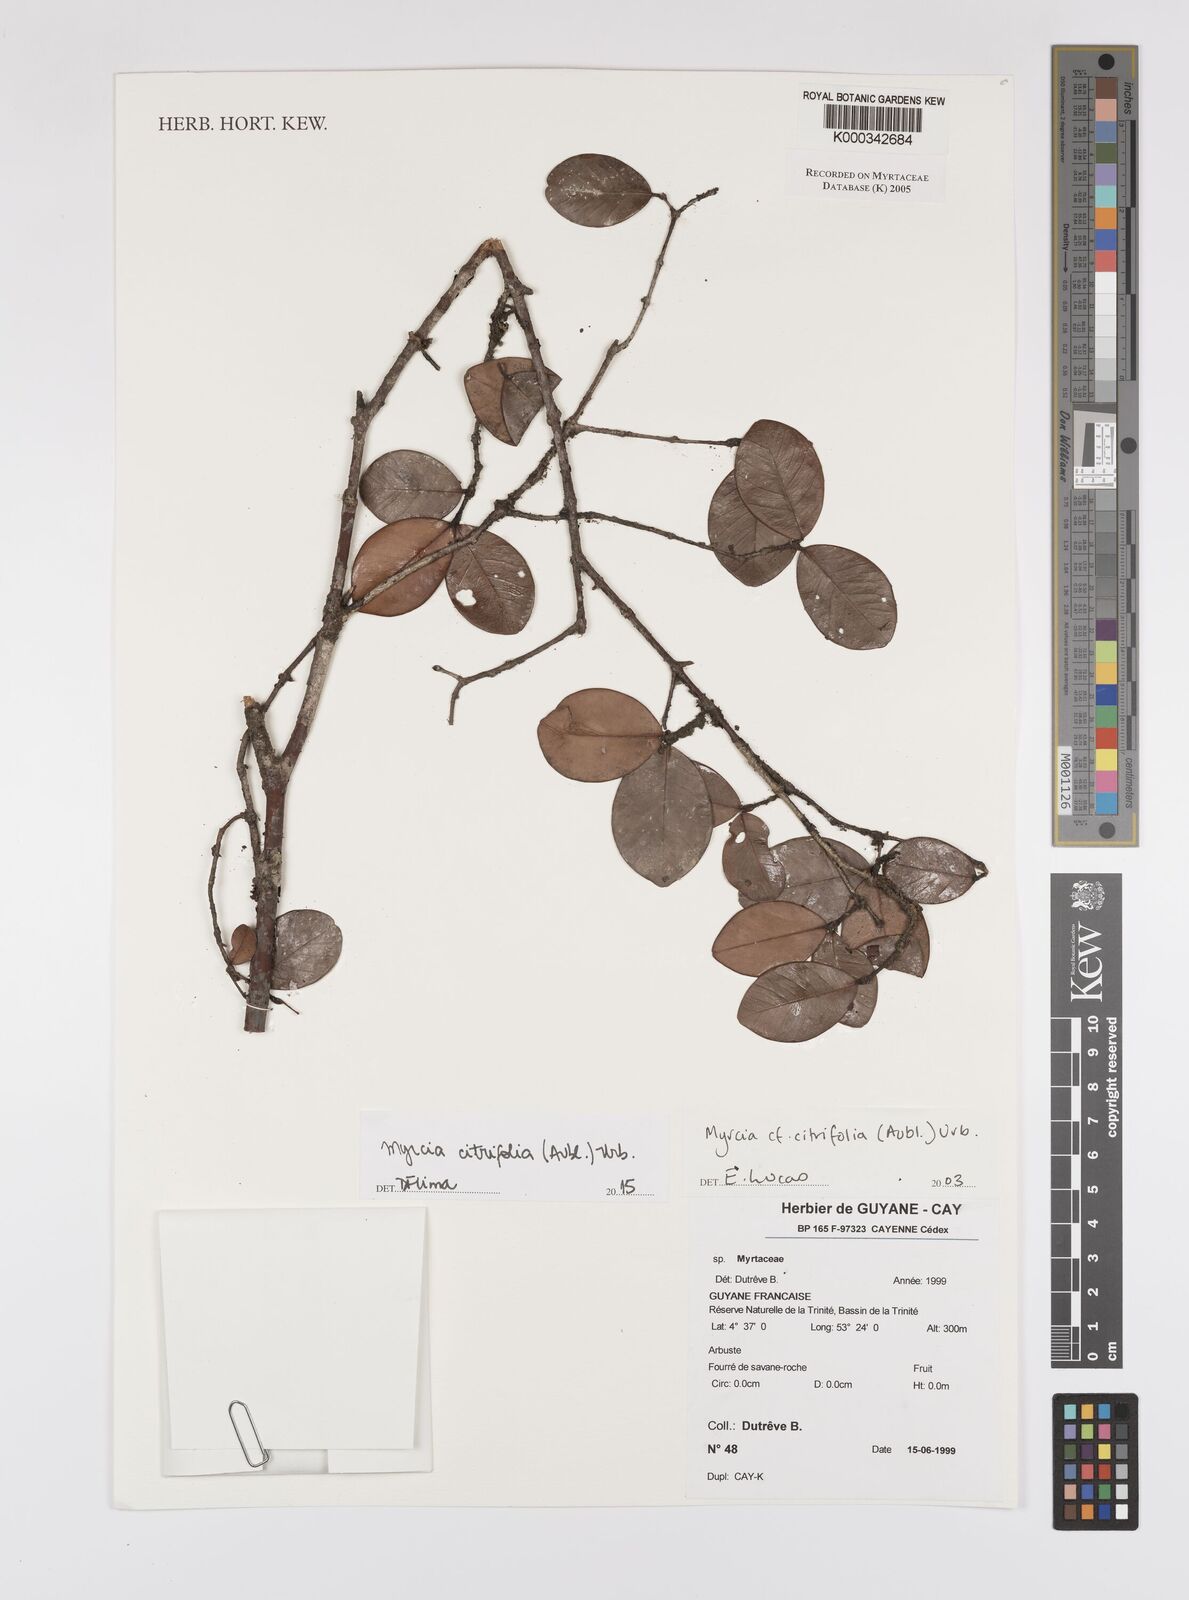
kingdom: Plantae
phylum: Tracheophyta
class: Magnoliopsida
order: Myrtales
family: Myrtaceae
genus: Myrcia
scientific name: Myrcia guianensis
